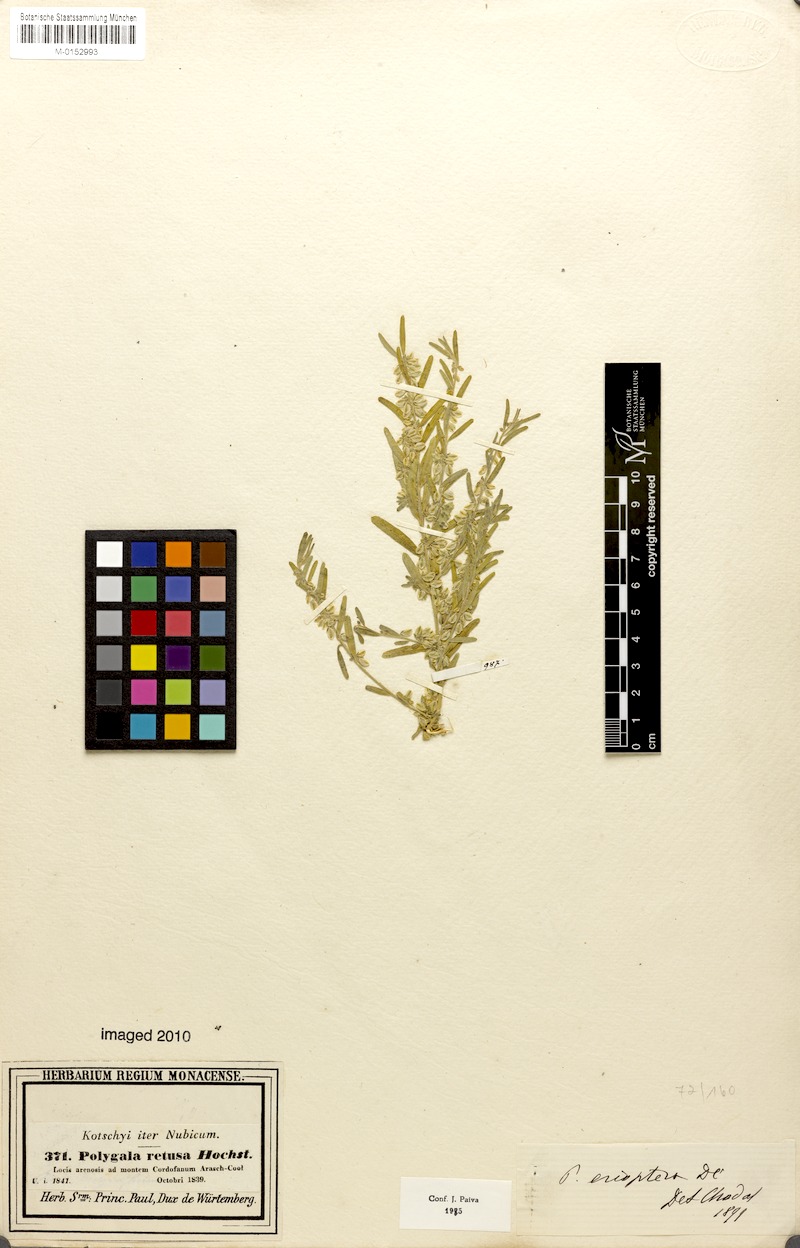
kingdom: Plantae
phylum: Tracheophyta
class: Magnoliopsida
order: Fabales
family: Polygalaceae
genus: Polygala
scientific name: Polygala erioptera
